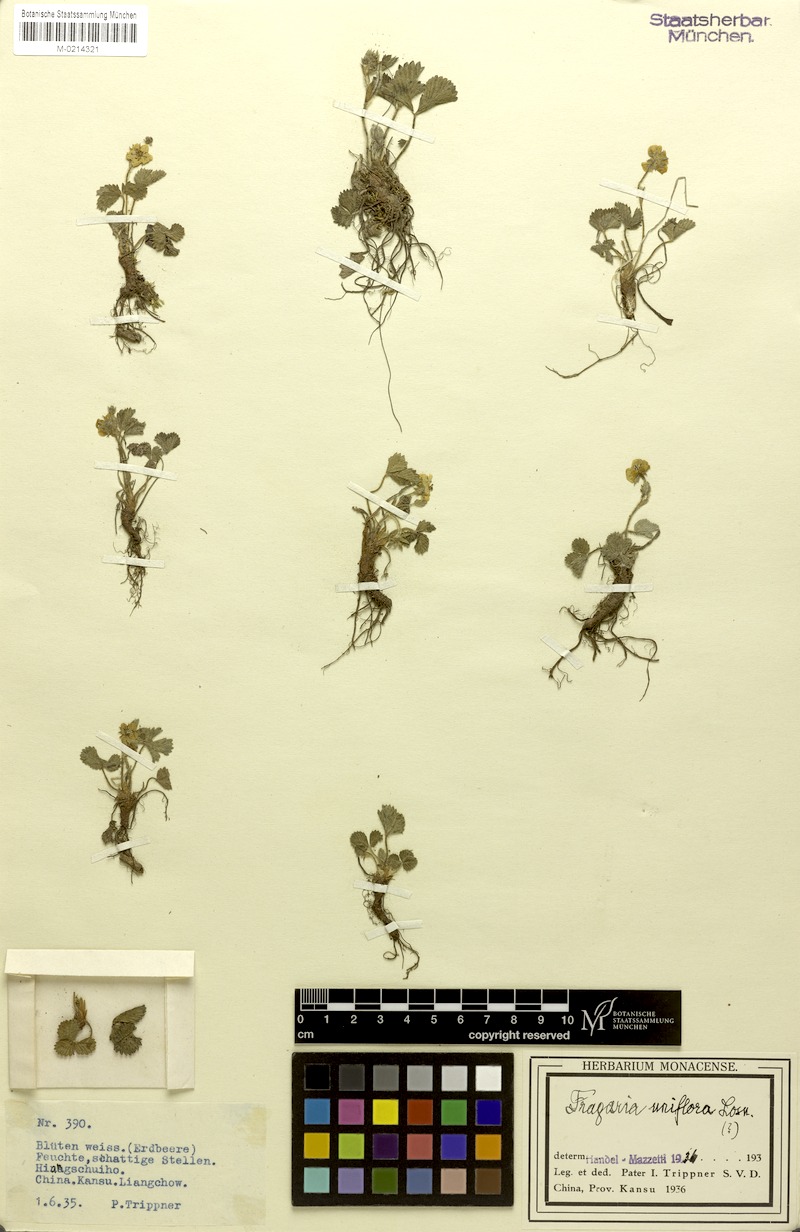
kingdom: Plantae
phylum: Tracheophyta
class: Magnoliopsida
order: Rosales
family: Rosaceae
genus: Fragaria
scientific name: Fragaria orientalis
